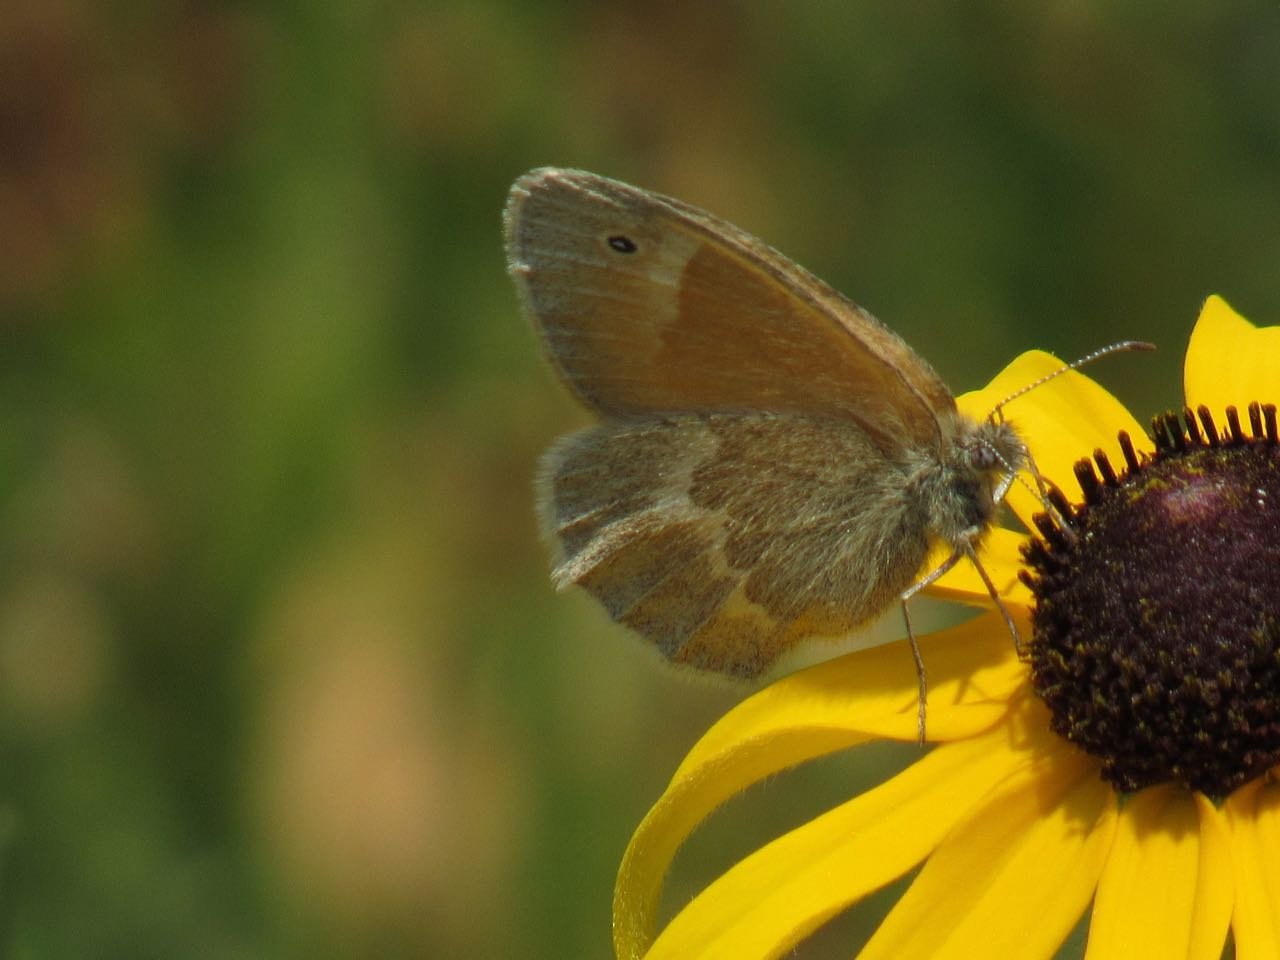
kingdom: Animalia
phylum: Arthropoda
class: Insecta
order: Lepidoptera
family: Nymphalidae
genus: Coenonympha
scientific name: Coenonympha tullia
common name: Large Heath
